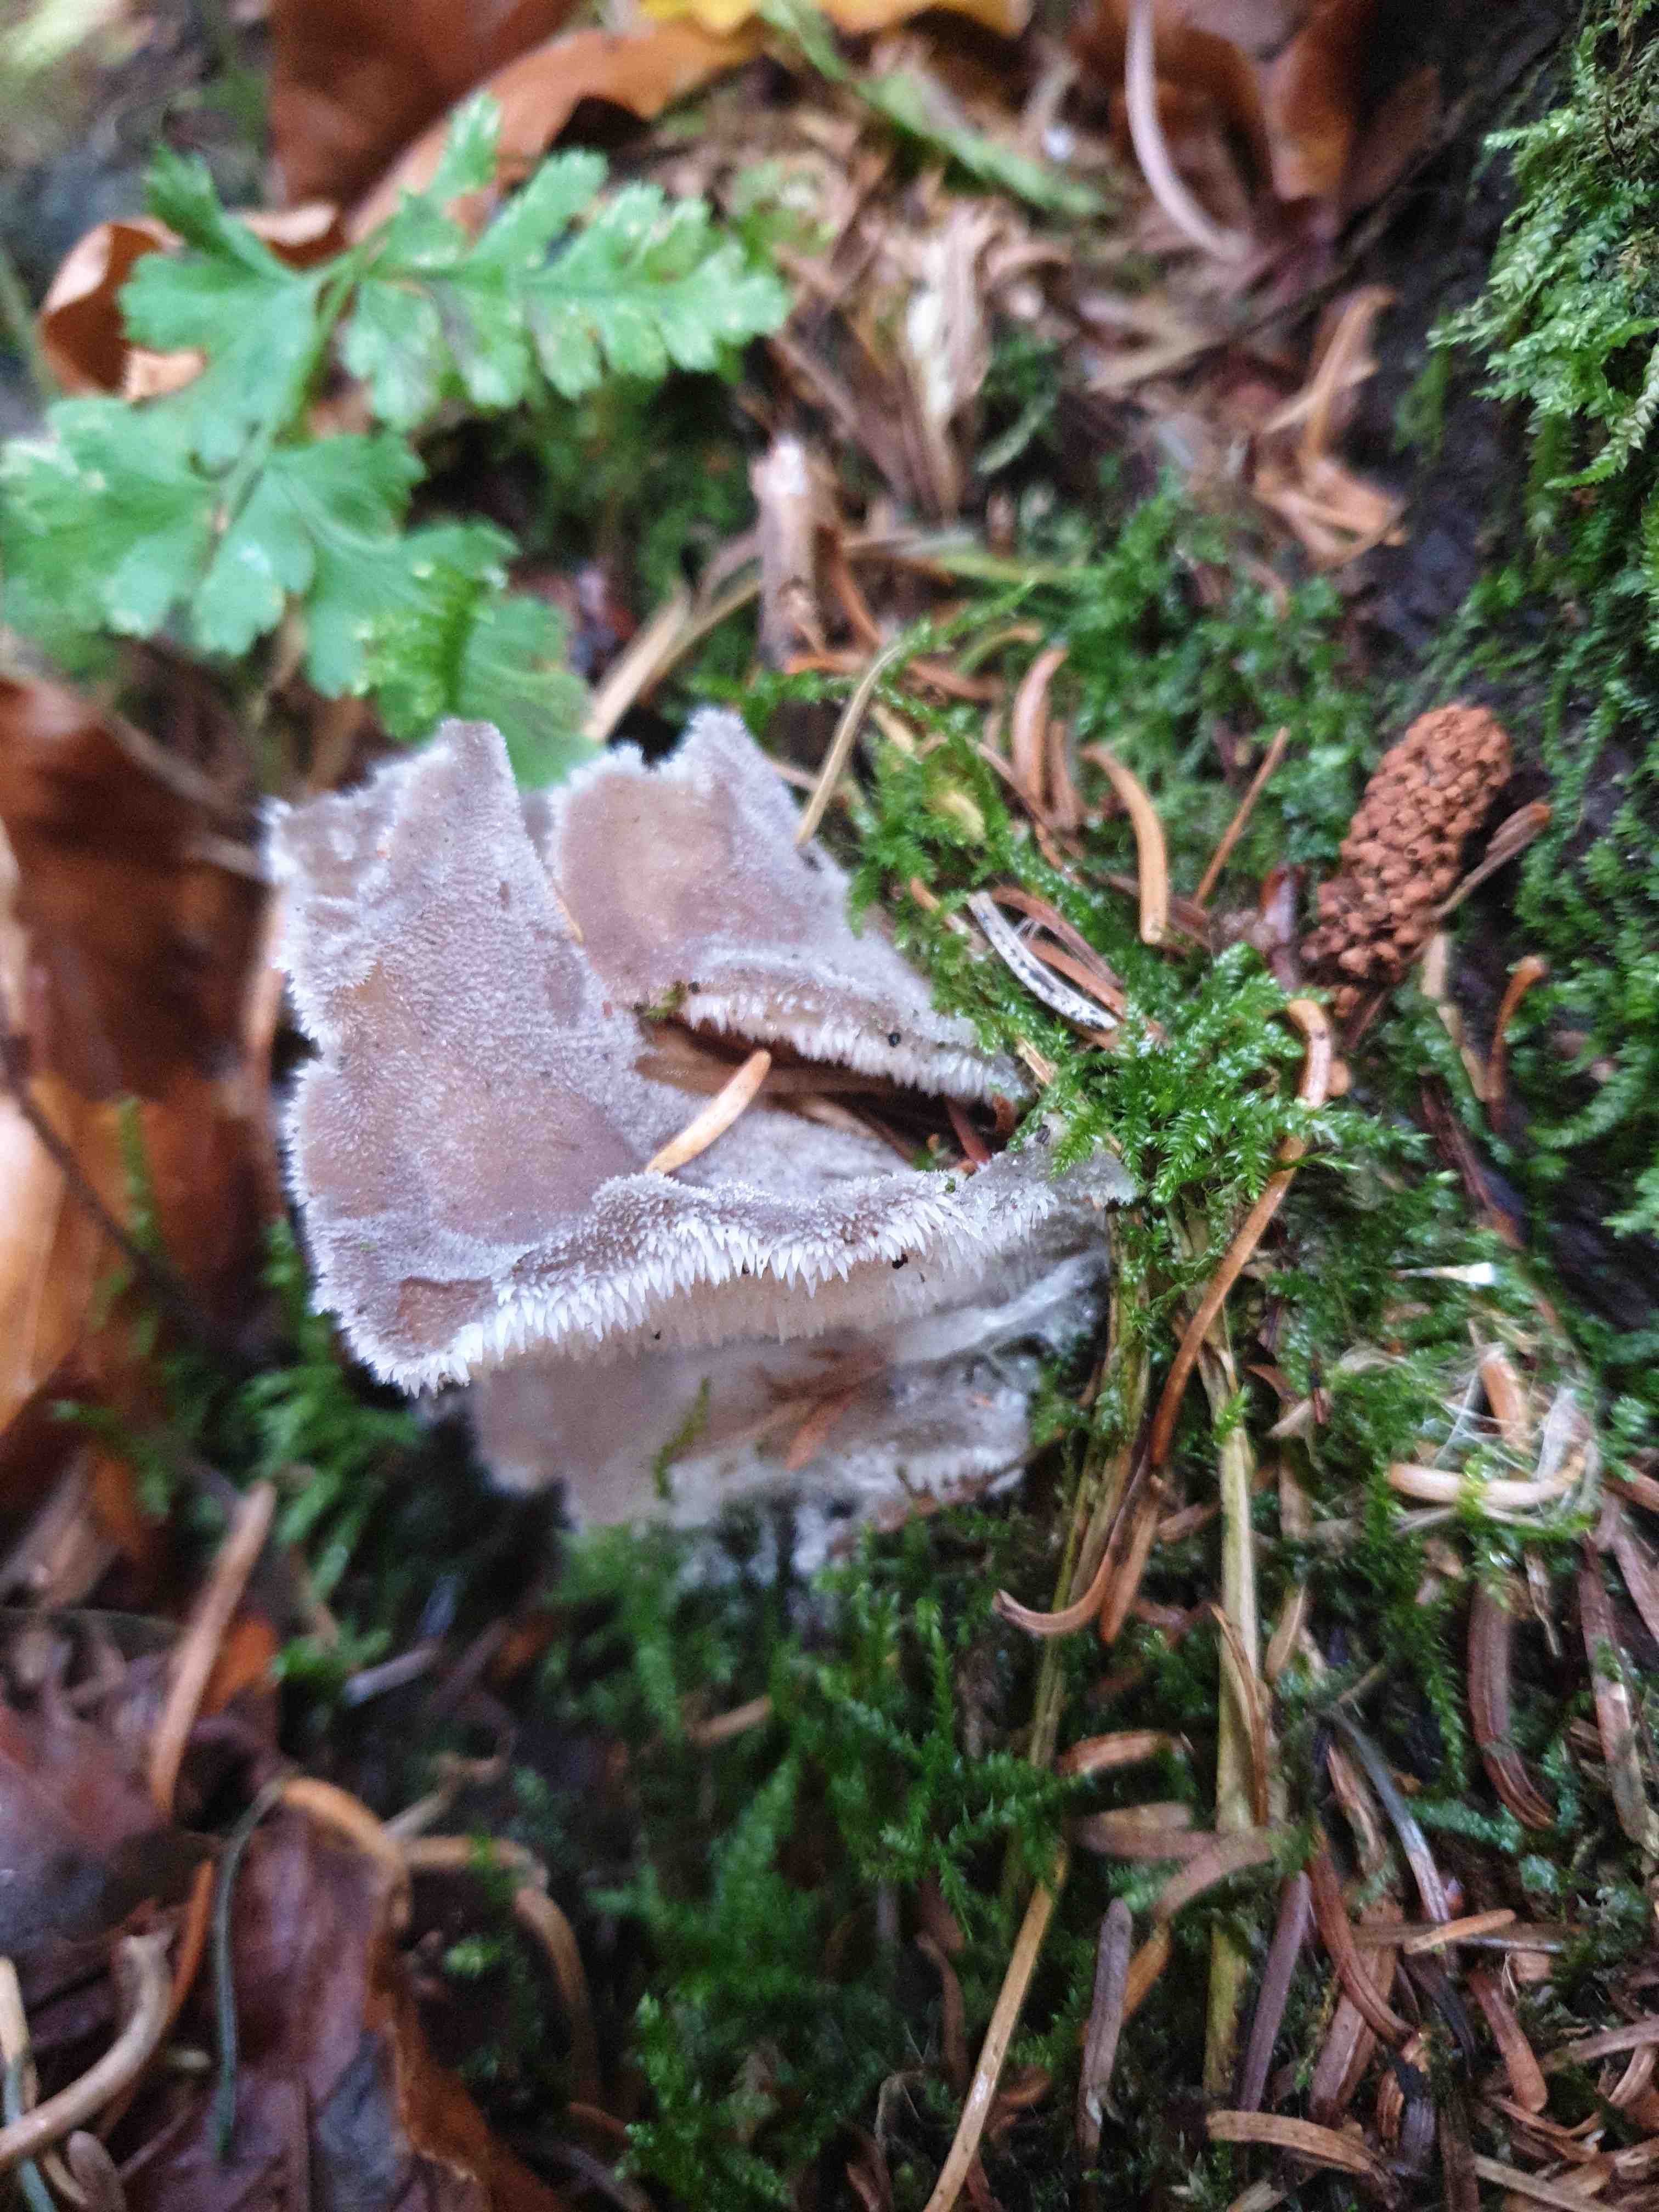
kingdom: Fungi
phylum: Basidiomycota
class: Agaricomycetes
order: Auriculariales
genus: Pseudohydnum
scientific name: Pseudohydnum gelatinosum
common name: bævretand
